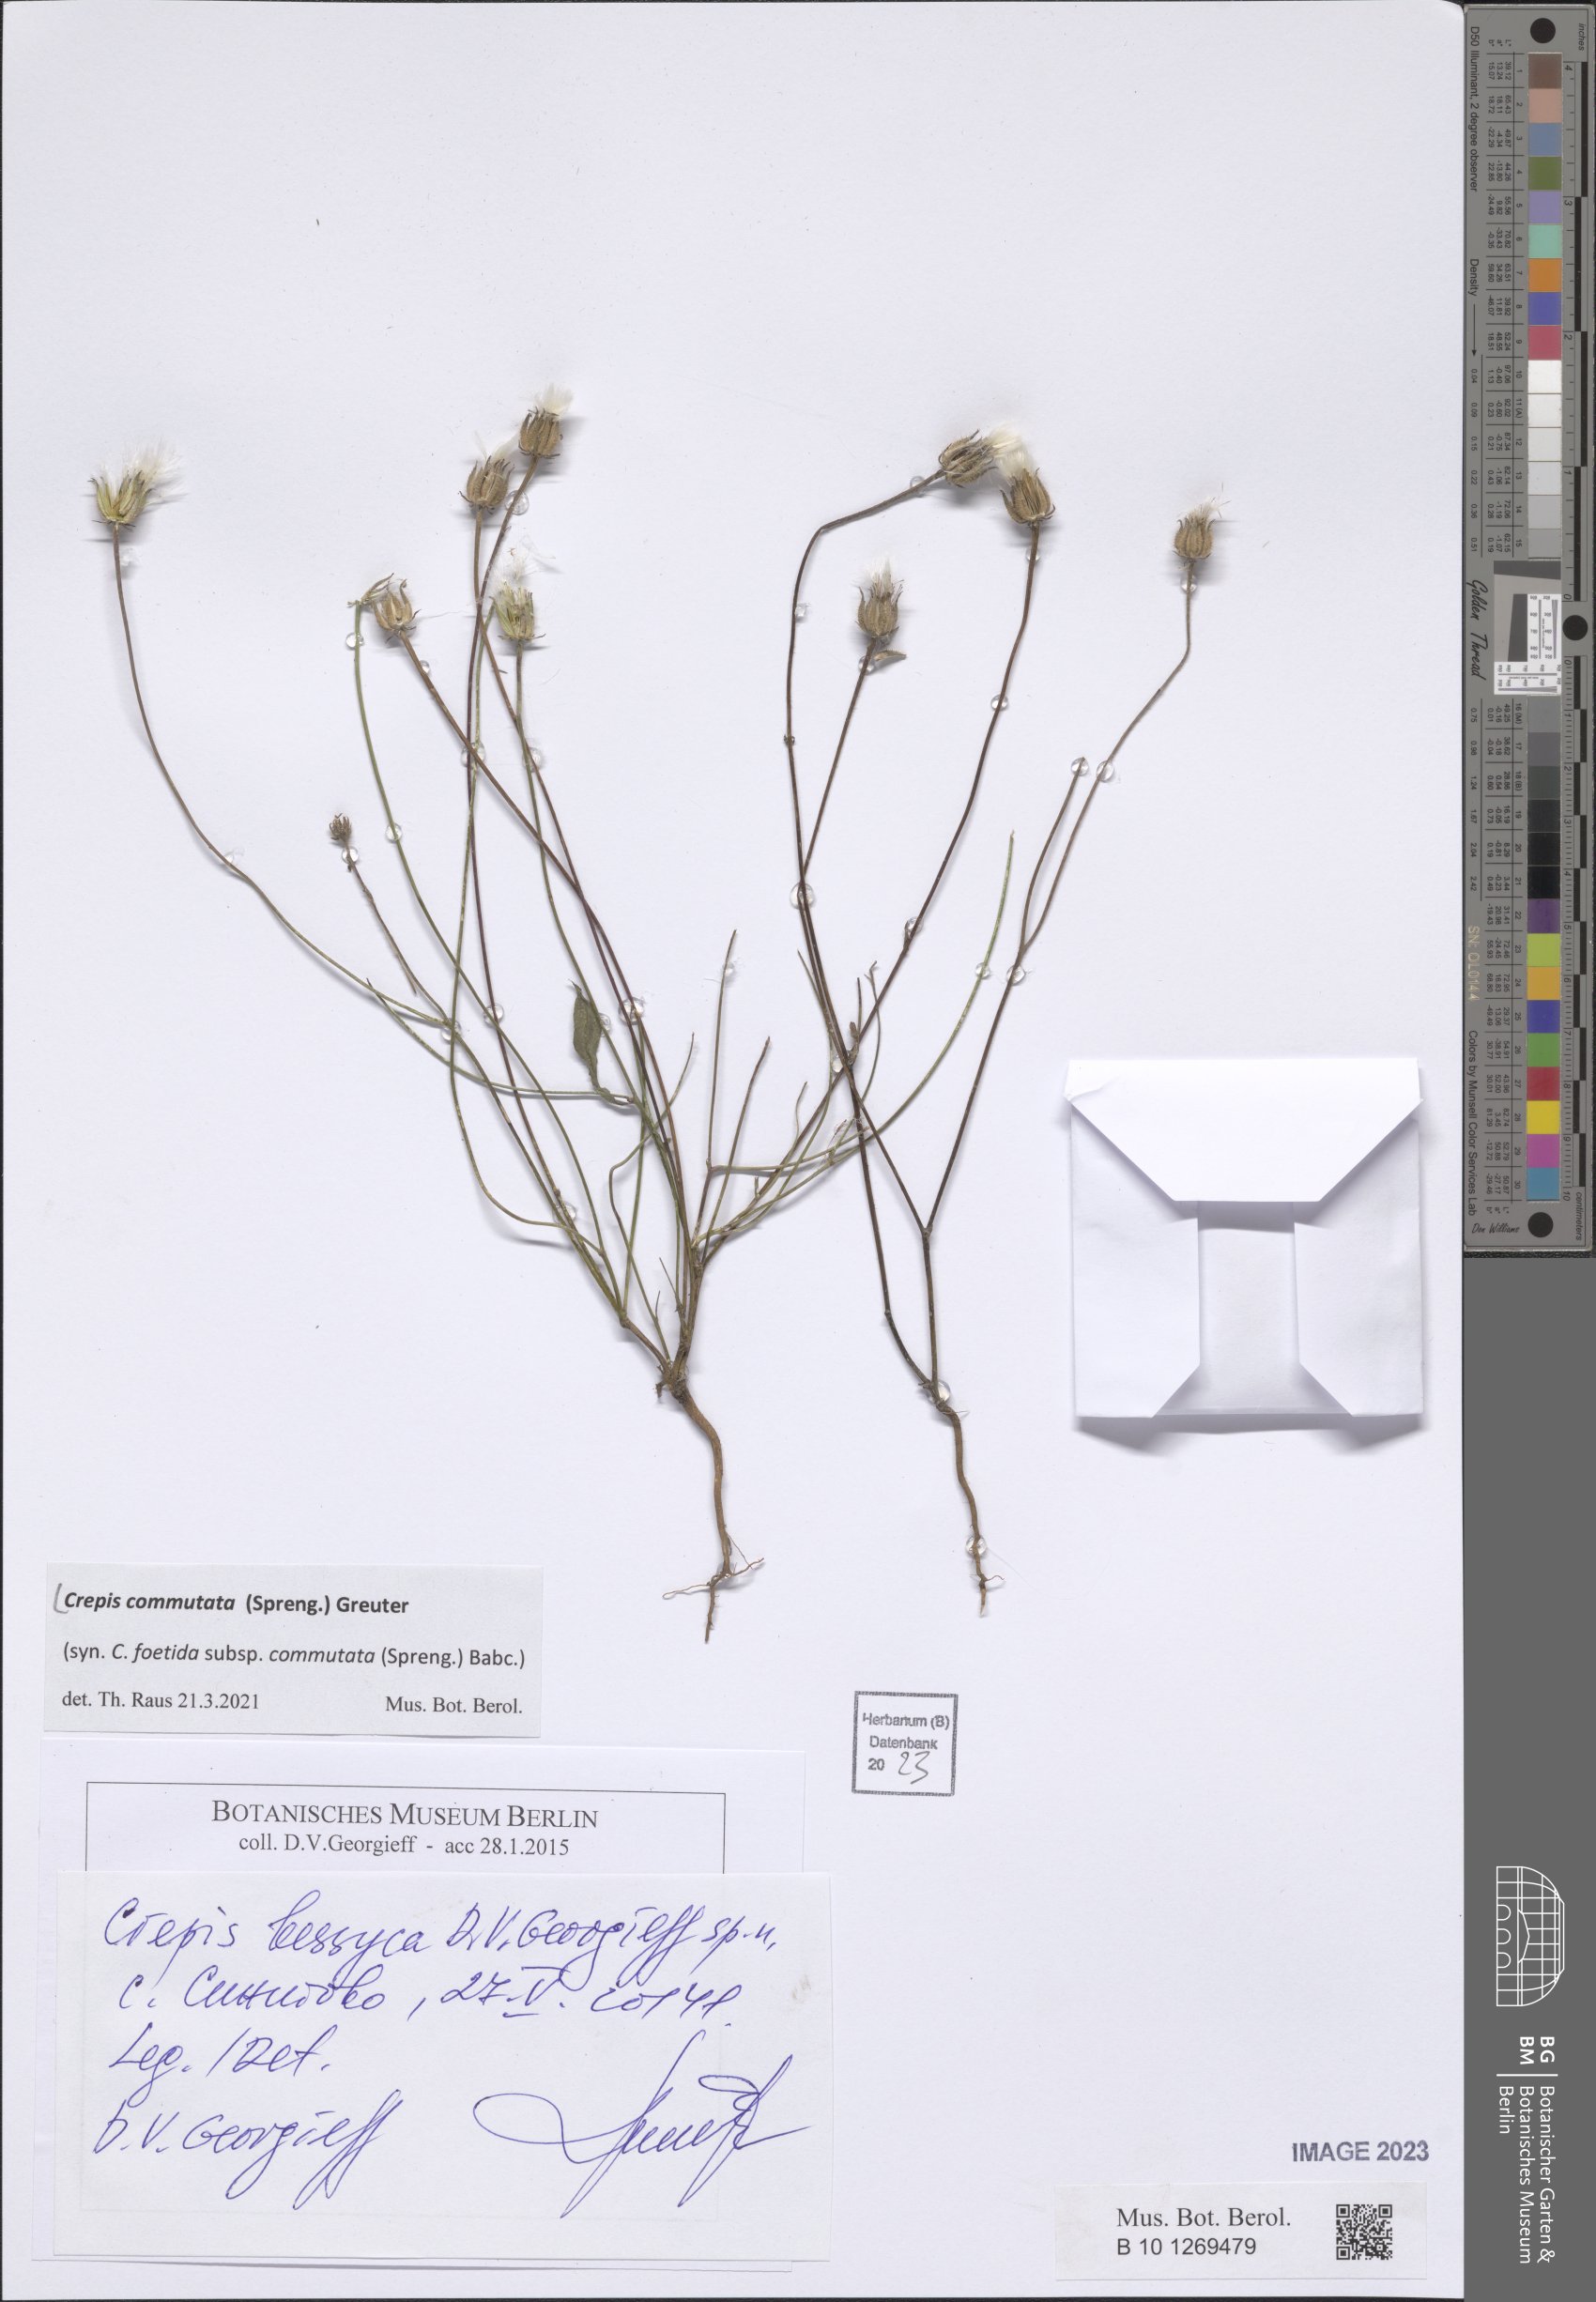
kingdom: Plantae
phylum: Tracheophyta
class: Magnoliopsida
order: Asterales
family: Asteraceae
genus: Crepis
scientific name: Crepis commutata
